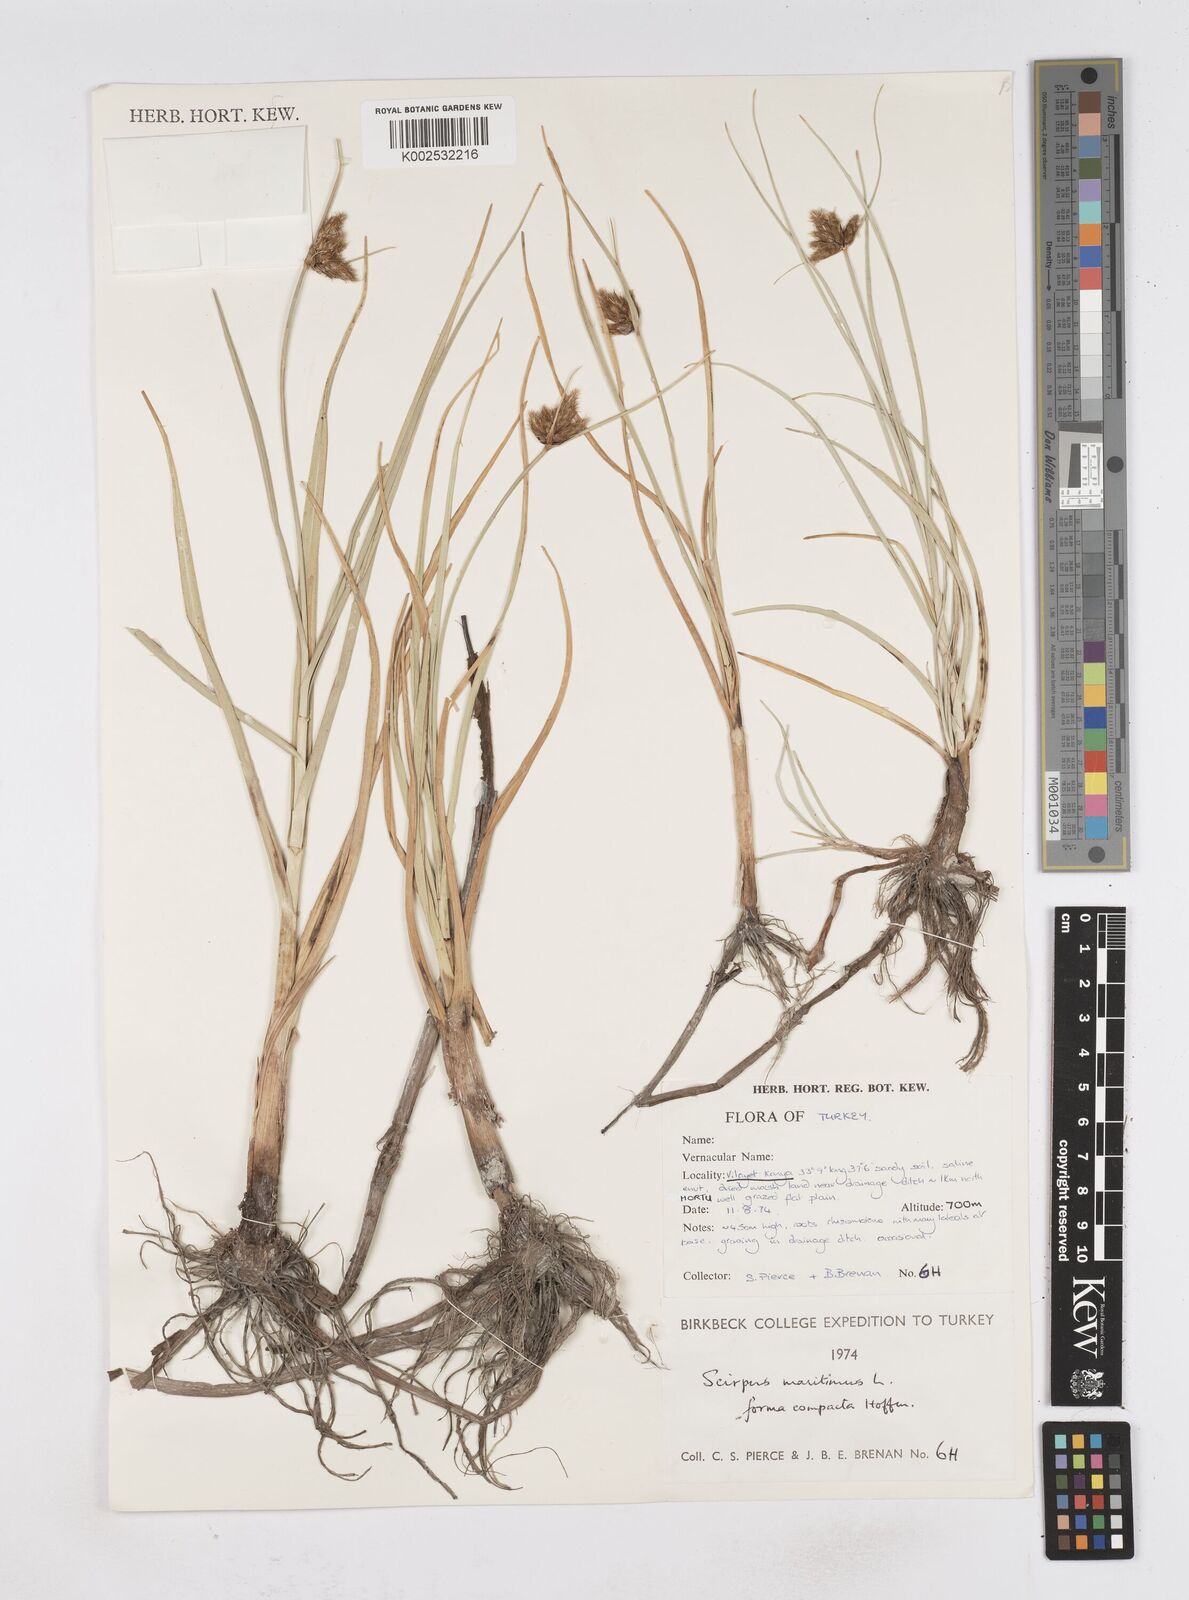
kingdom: Plantae
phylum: Tracheophyta
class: Liliopsida
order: Poales
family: Cyperaceae
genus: Bolboschoenus
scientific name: Bolboschoenus maritimus
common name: Sea club-rush
